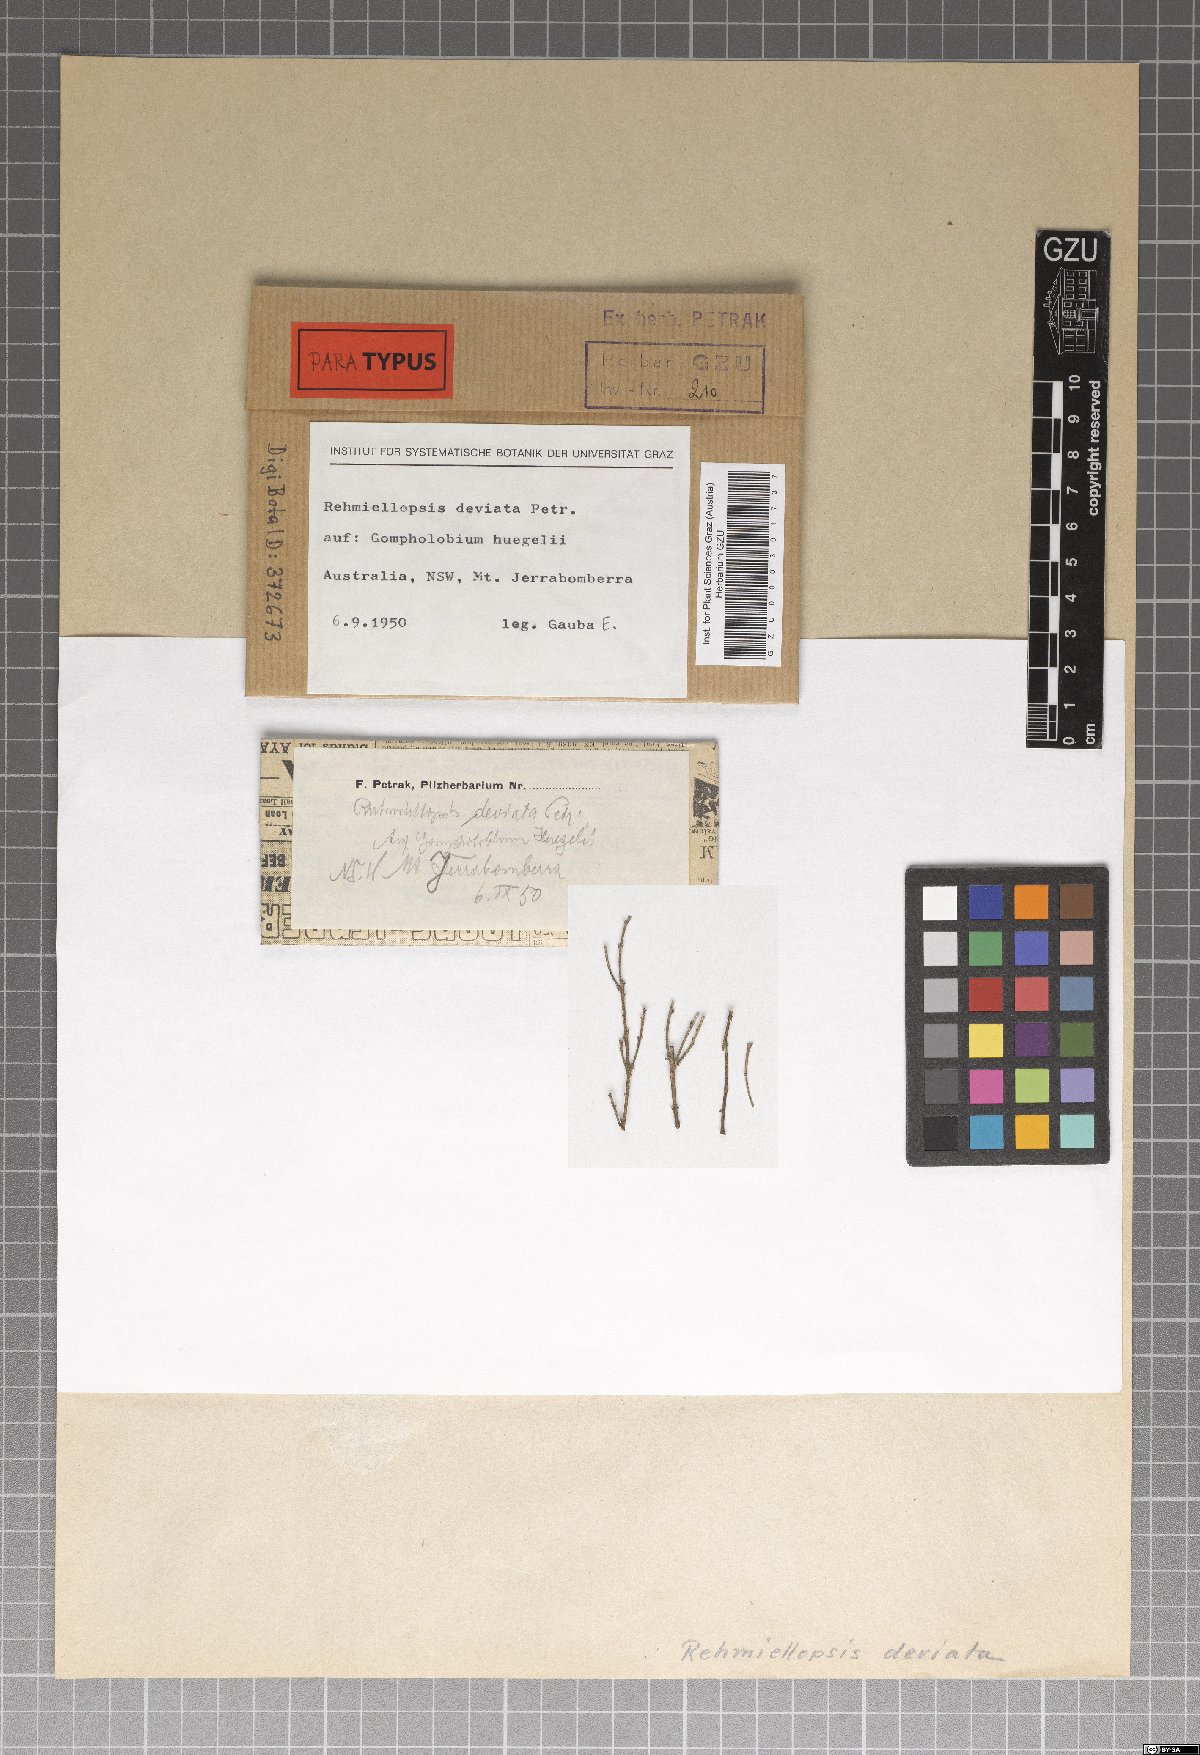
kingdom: Fungi
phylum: Ascomycota
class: Dothideomycetes
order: Dothideales
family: Dothioraceae
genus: Delphinella
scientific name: Delphinella deviata
